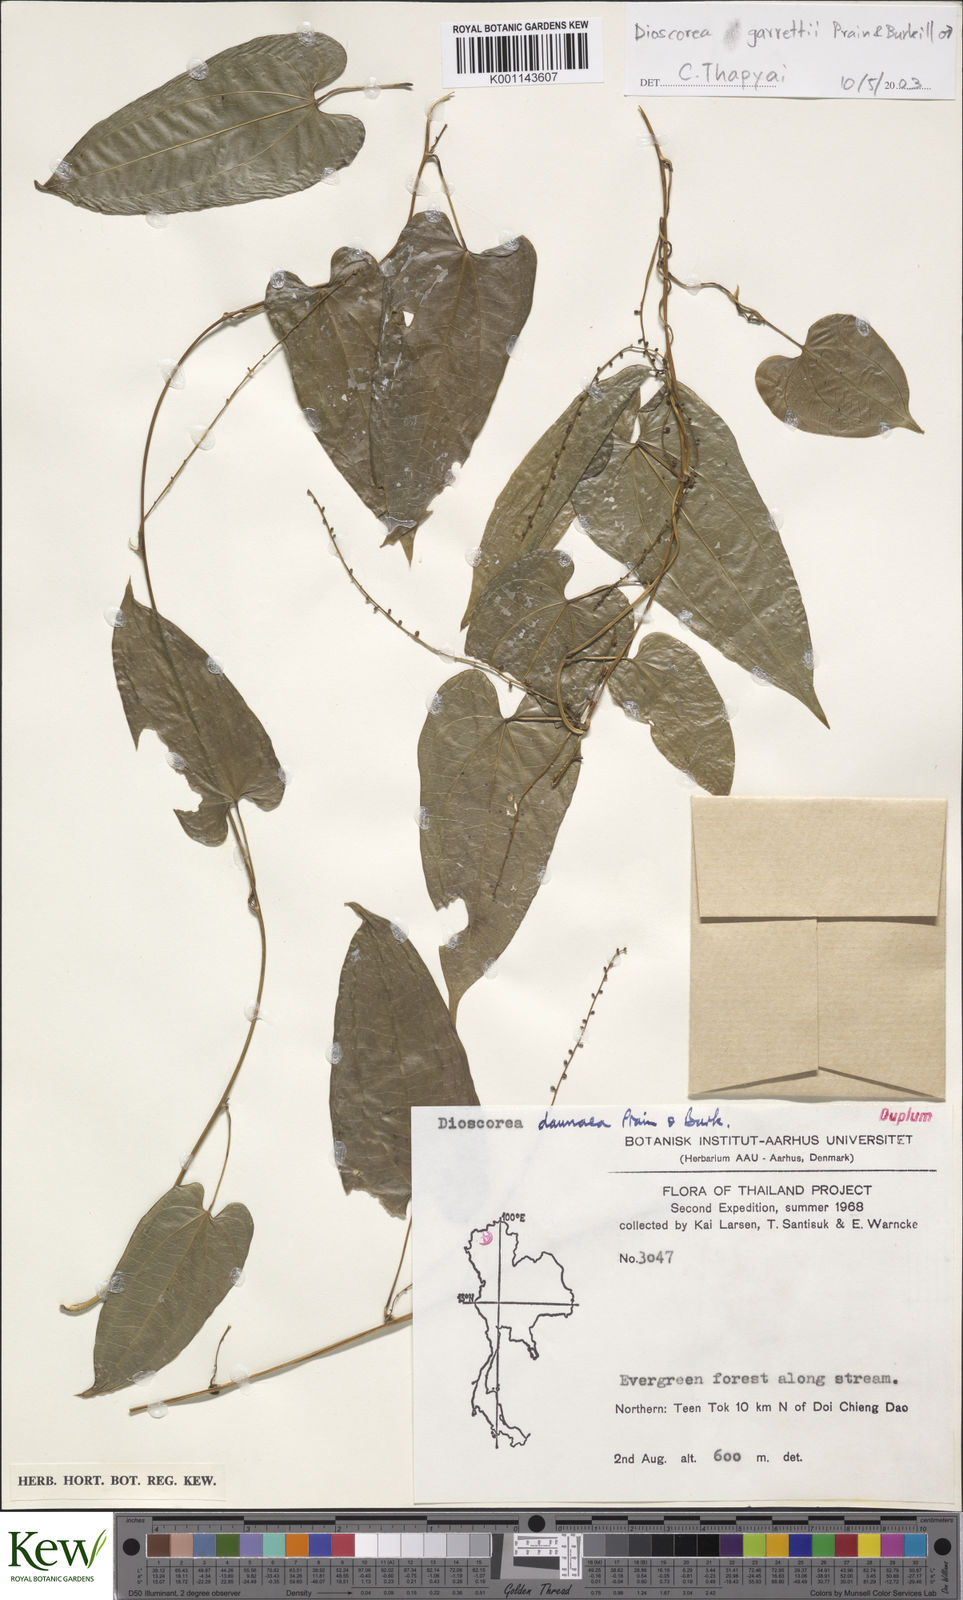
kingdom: Plantae
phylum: Tracheophyta
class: Liliopsida
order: Dioscoreales
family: Dioscoreaceae
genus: Dioscorea
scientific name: Dioscorea garrettii
